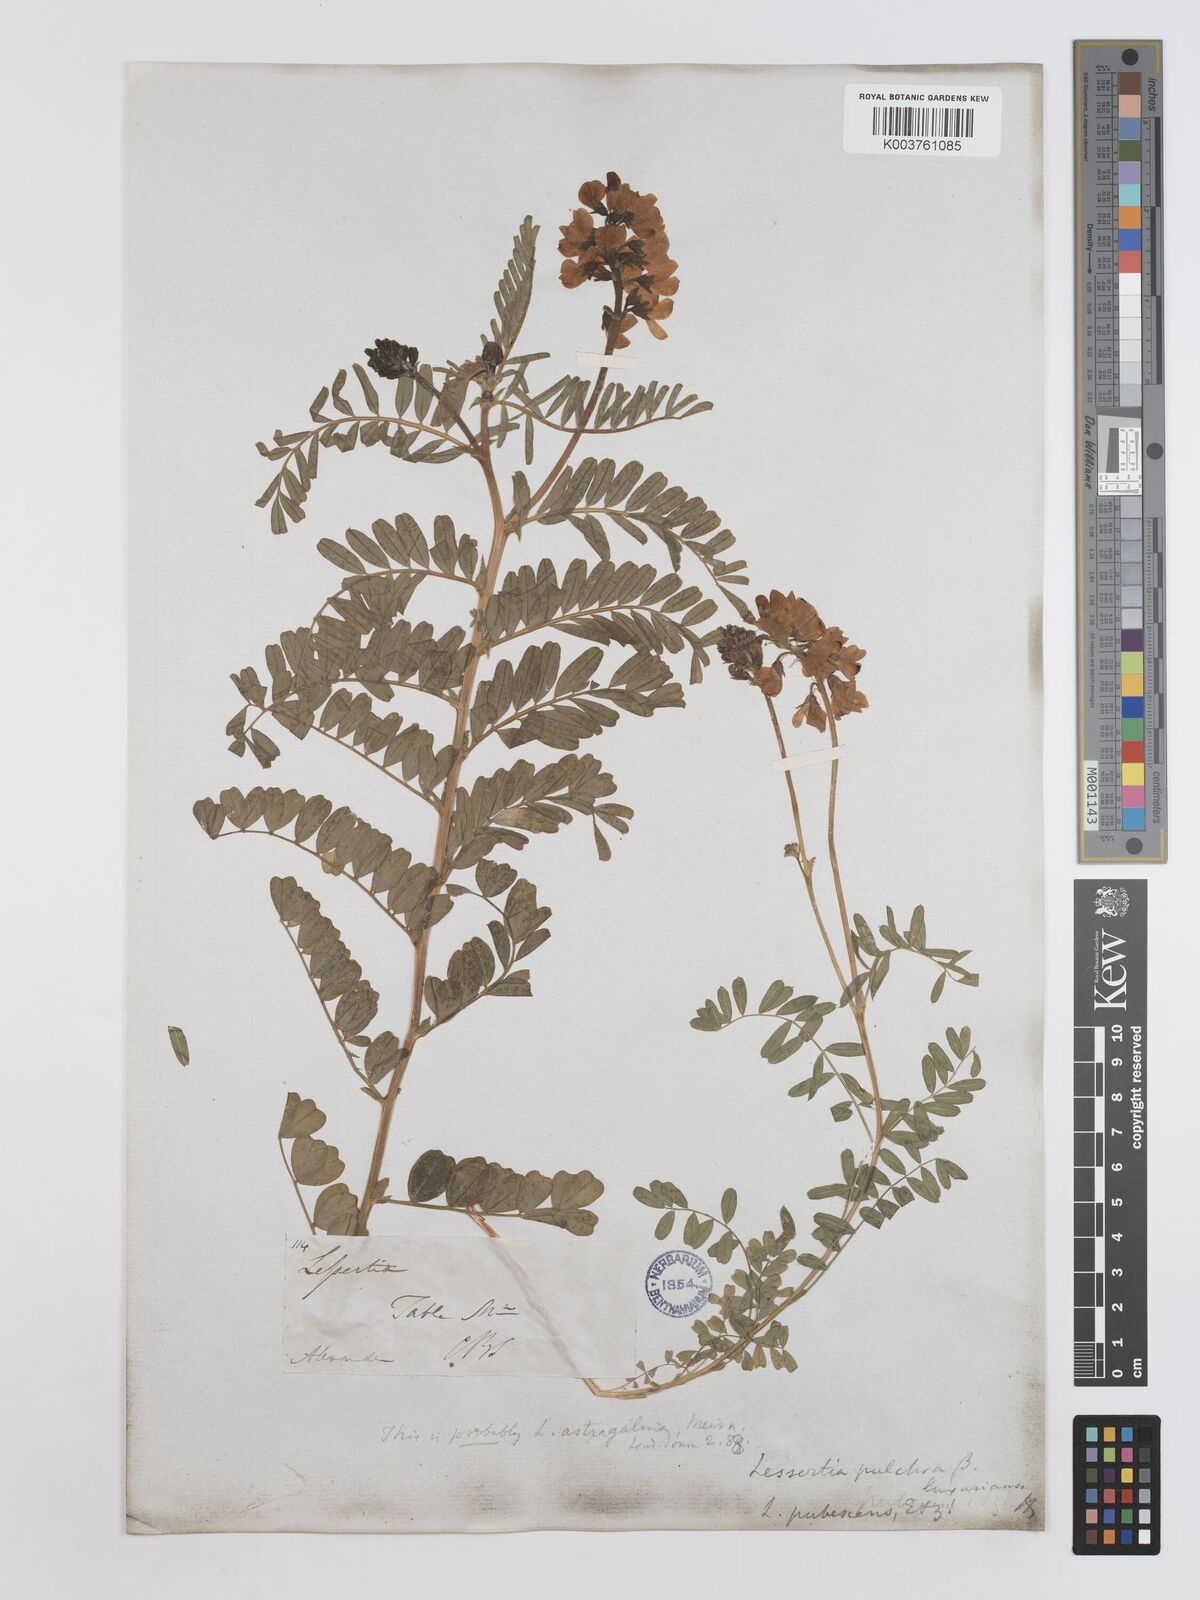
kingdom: Plantae
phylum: Tracheophyta
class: Magnoliopsida
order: Fabales
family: Fabaceae
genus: Lessertia
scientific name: Lessertia capensis
